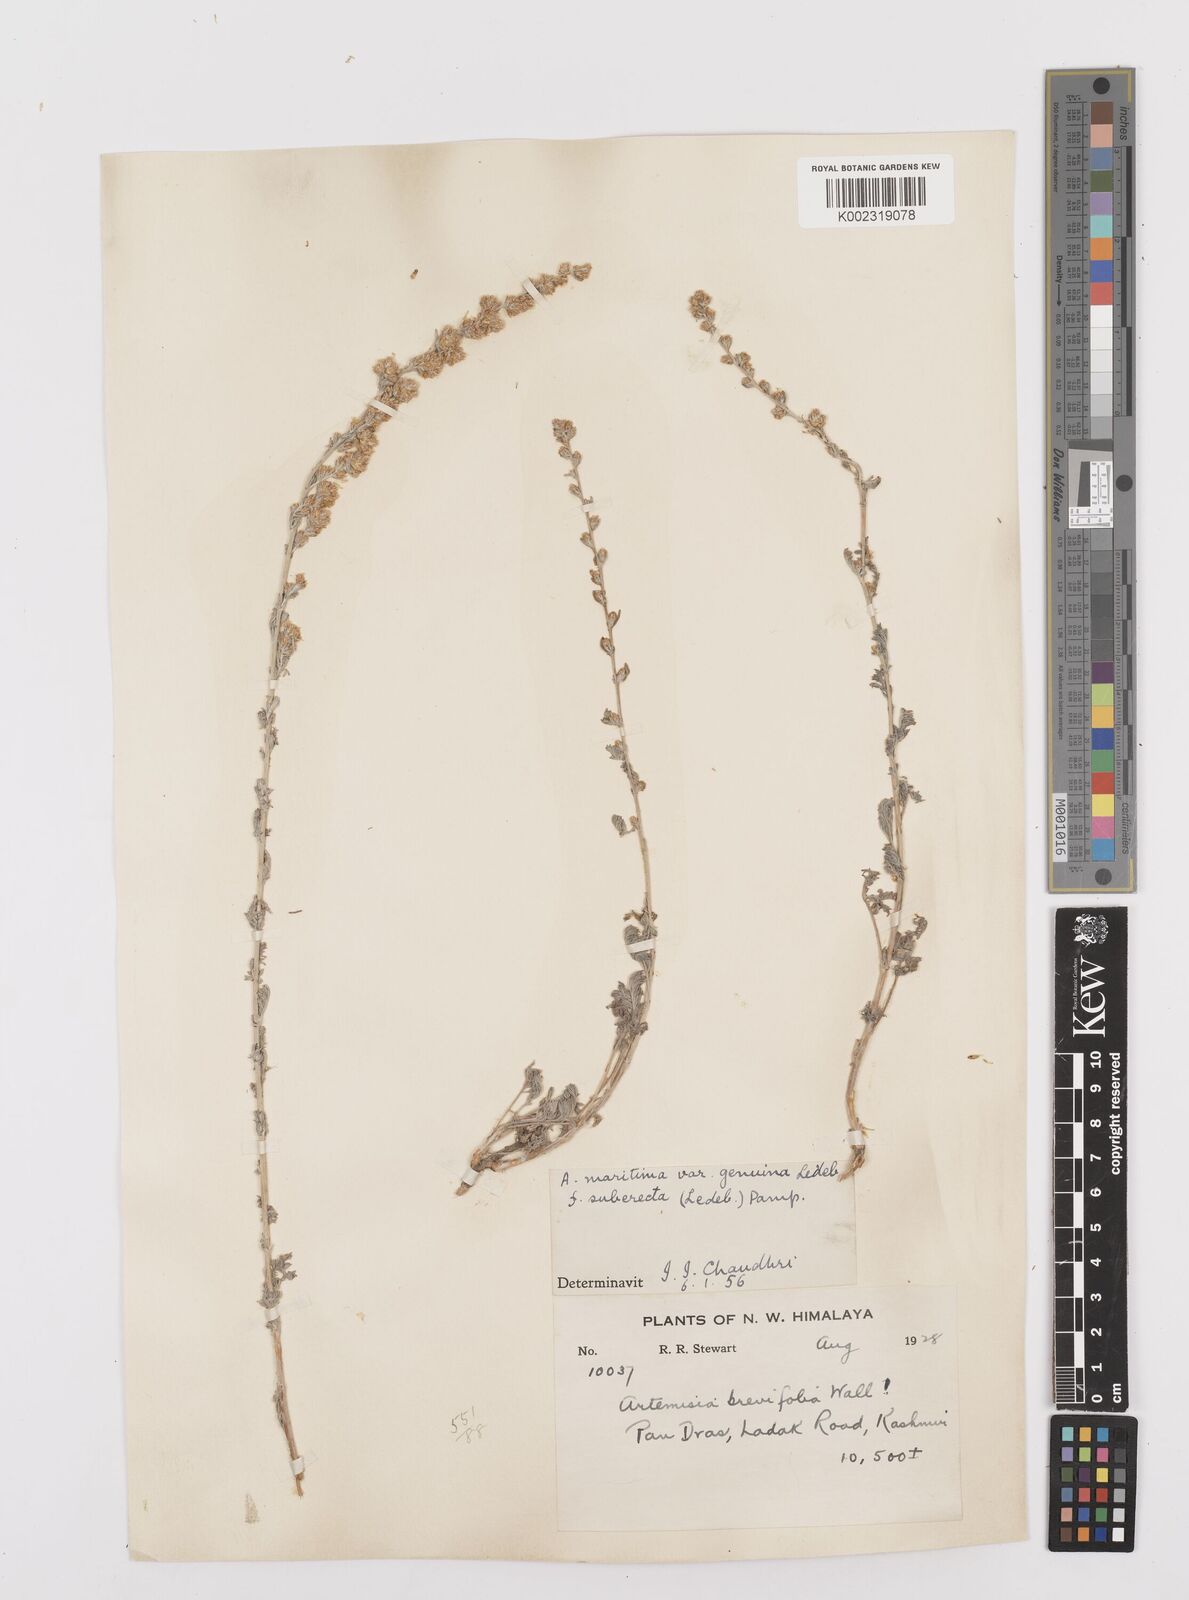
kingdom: Plantae
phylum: Tracheophyta
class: Magnoliopsida
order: Asterales
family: Asteraceae
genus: Artemisia
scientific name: Artemisia compacta
